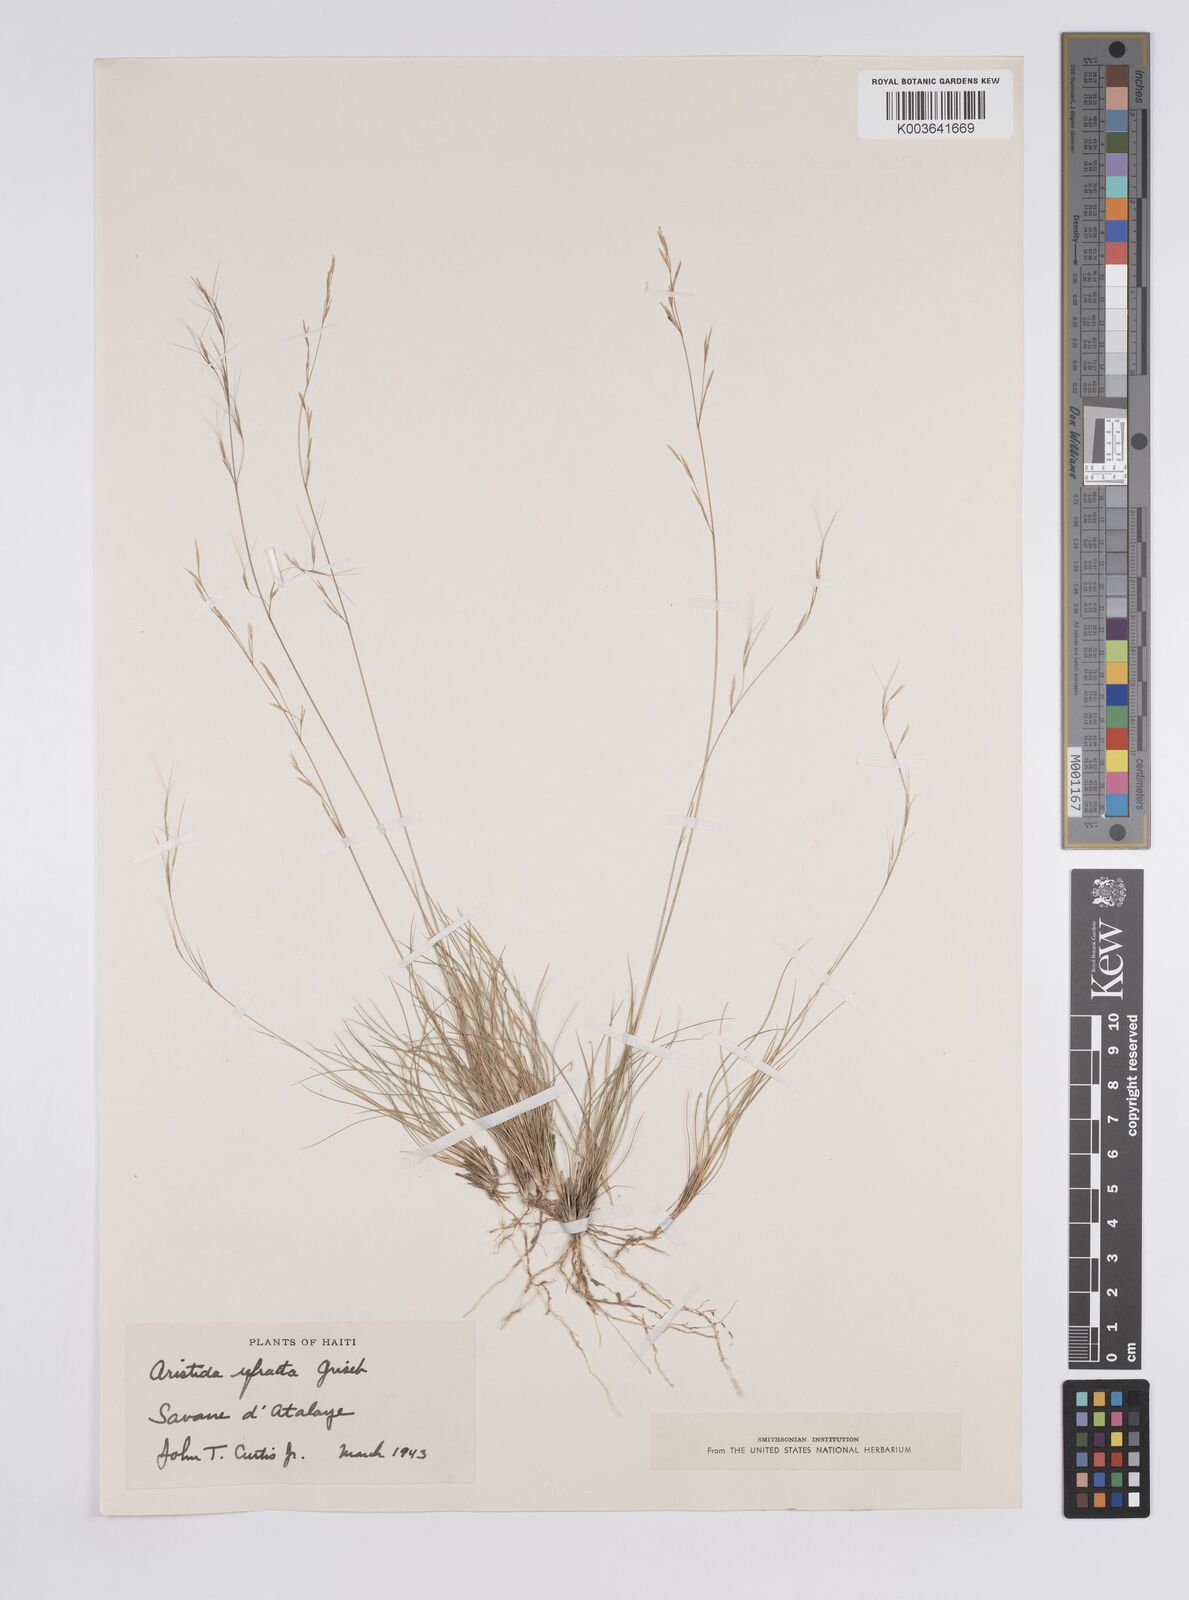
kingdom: Plantae
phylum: Tracheophyta
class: Liliopsida
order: Poales
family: Poaceae
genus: Aristida
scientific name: Aristida refracta
